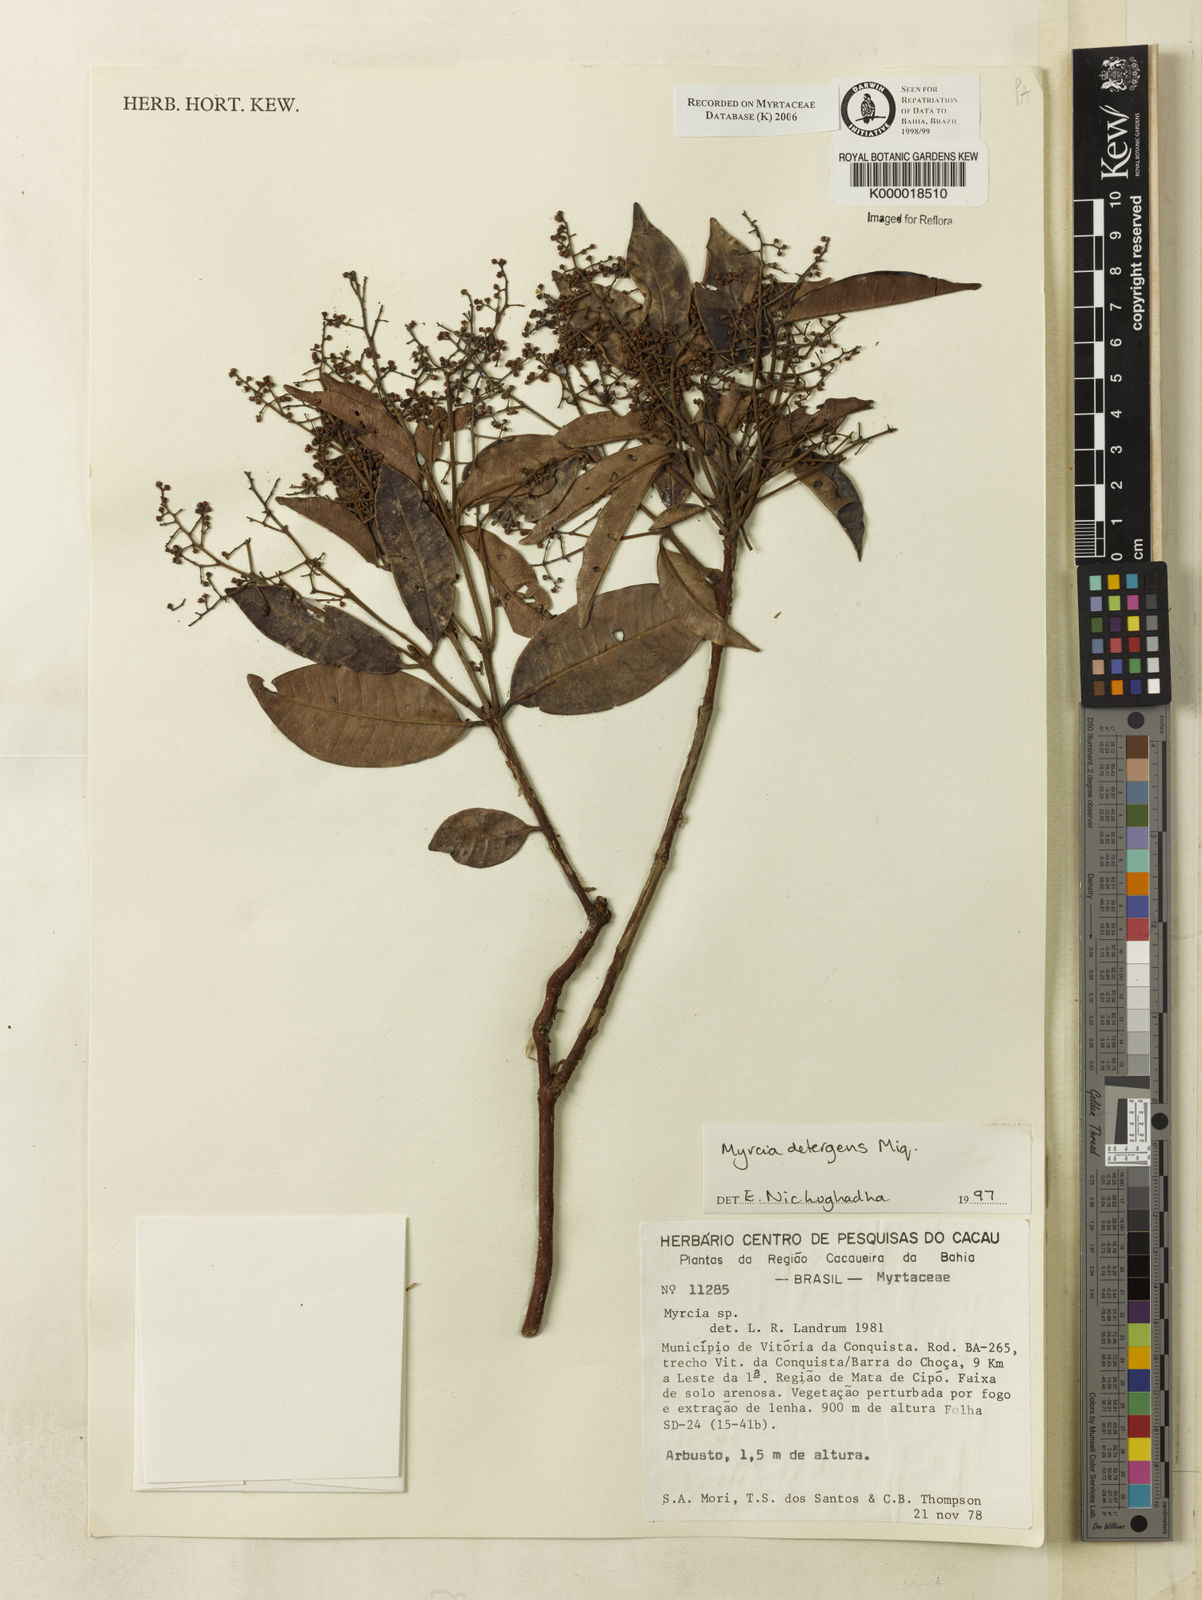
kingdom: Plantae
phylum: Tracheophyta
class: Magnoliopsida
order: Myrtales
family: Myrtaceae
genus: Myrcia
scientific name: Myrcia amazonica
